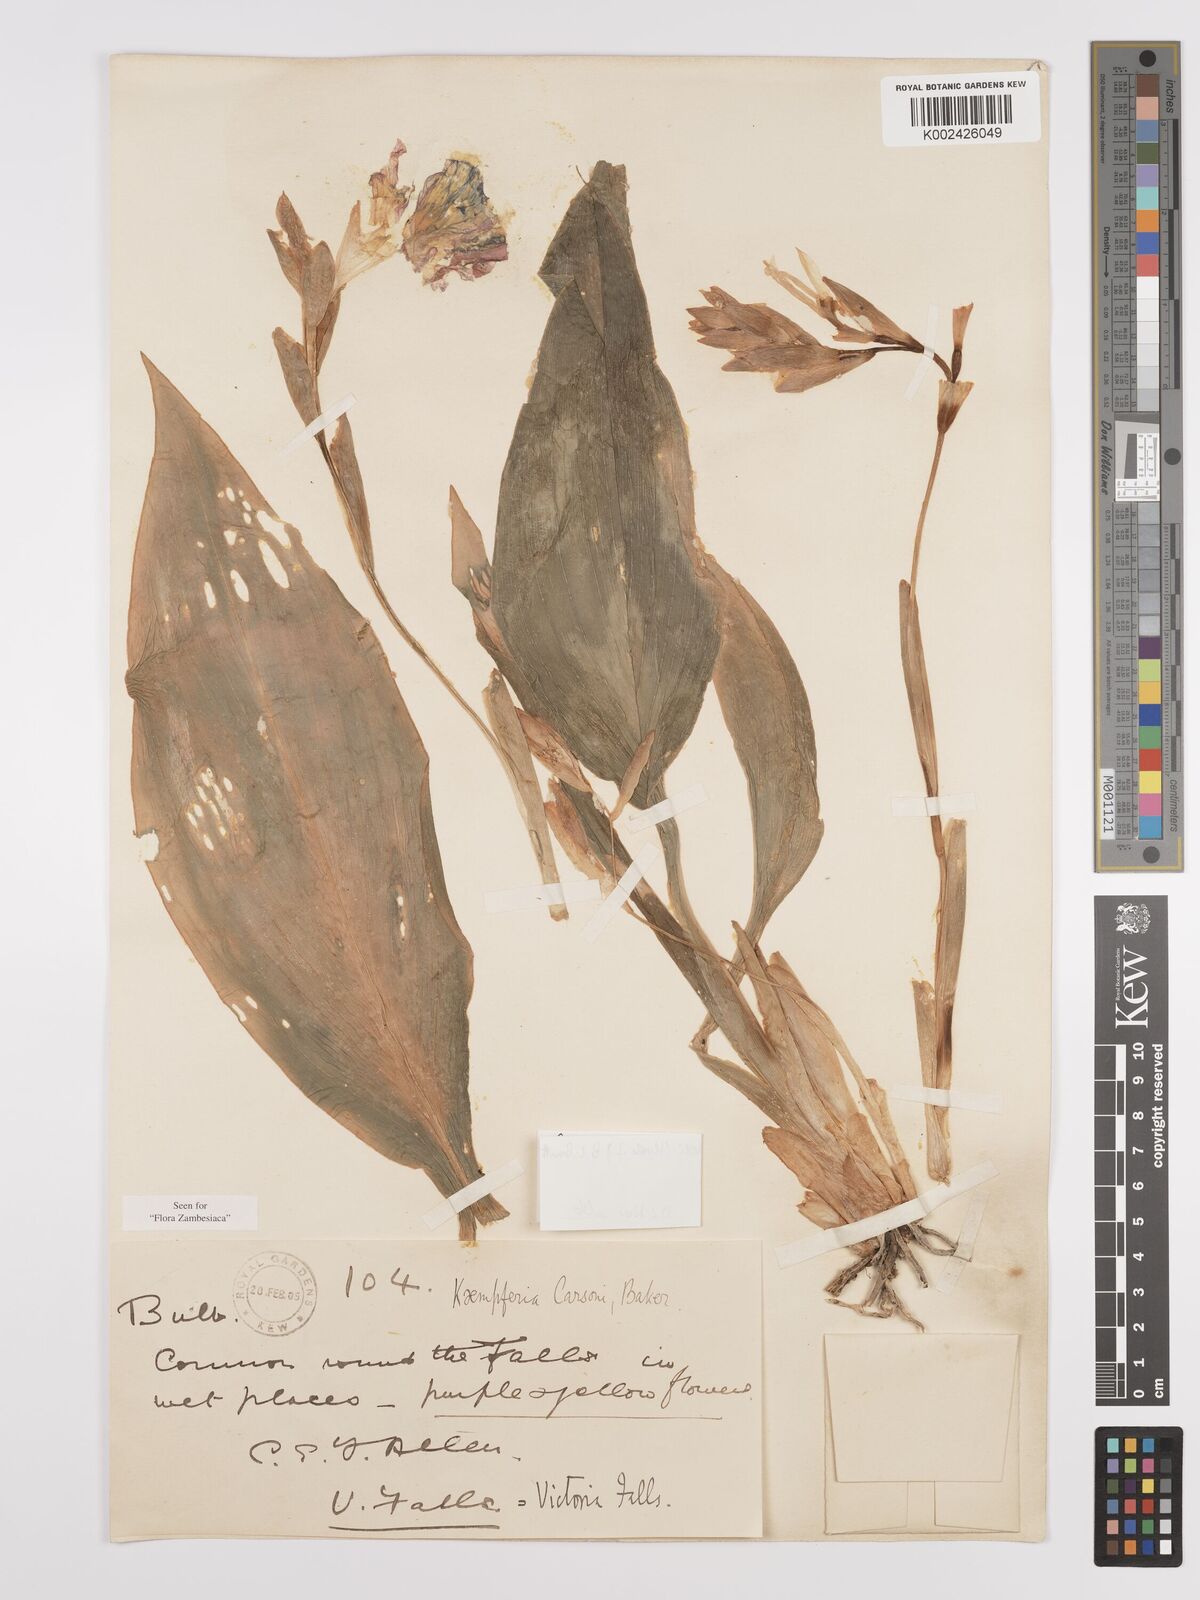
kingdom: Plantae
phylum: Tracheophyta
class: Liliopsida
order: Zingiberales
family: Zingiberaceae
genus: Siphonochilus
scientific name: Siphonochilus kirkii
